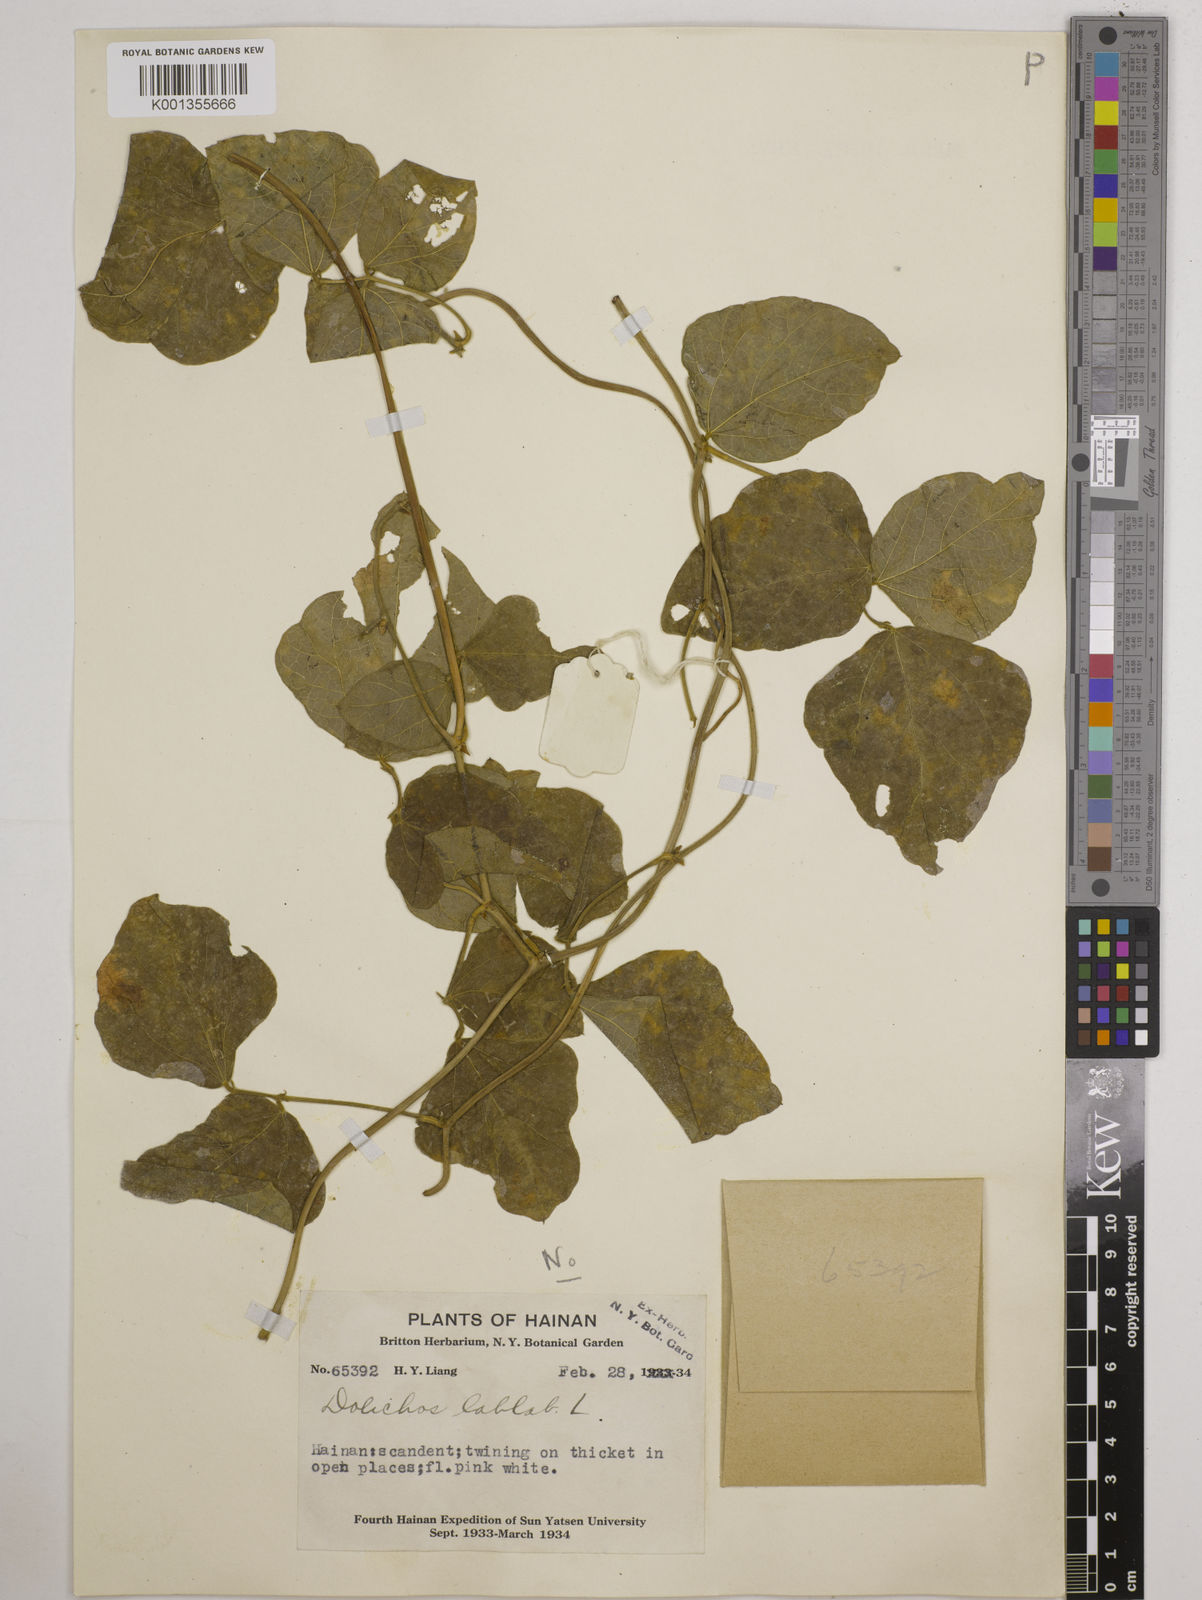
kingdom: Plantae
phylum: Tracheophyta
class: Magnoliopsida
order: Fabales
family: Fabaceae
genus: Vigna
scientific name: Vigna
